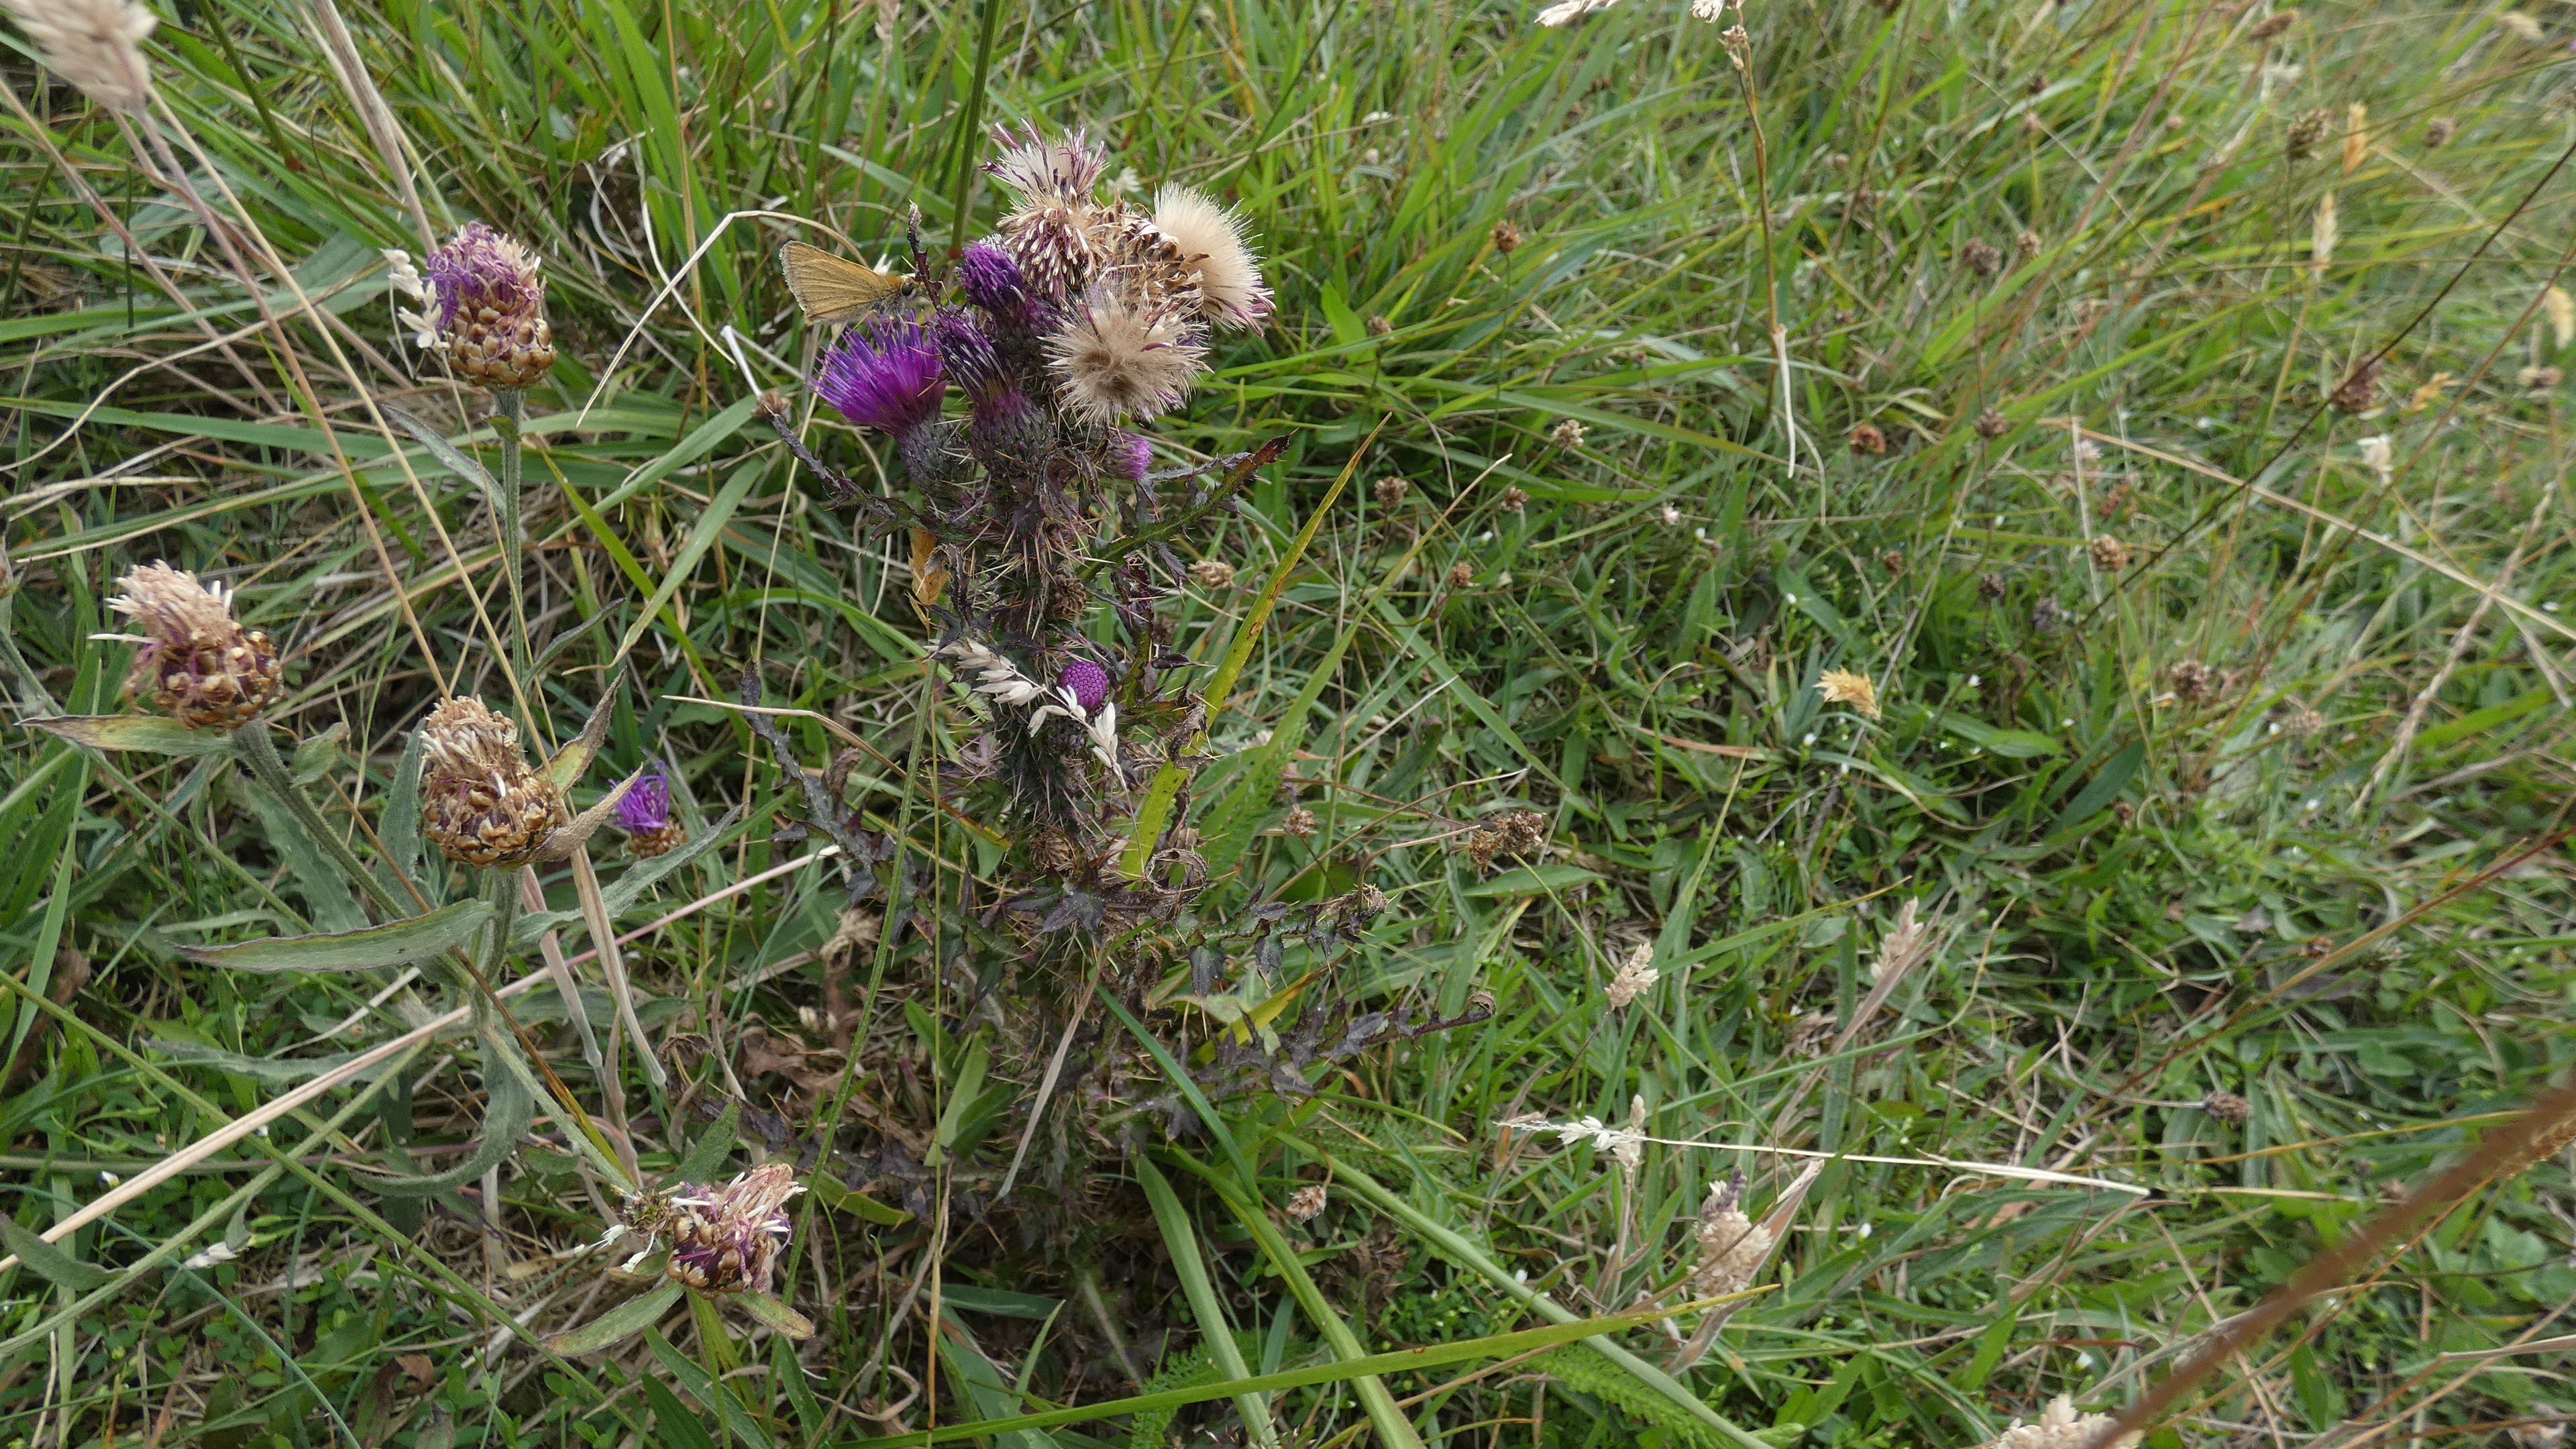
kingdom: Plantae
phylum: Tracheophyta
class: Magnoliopsida
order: Asterales
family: Asteraceae
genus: Cirsium
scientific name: Cirsium palustre
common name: Kær-tidsel
